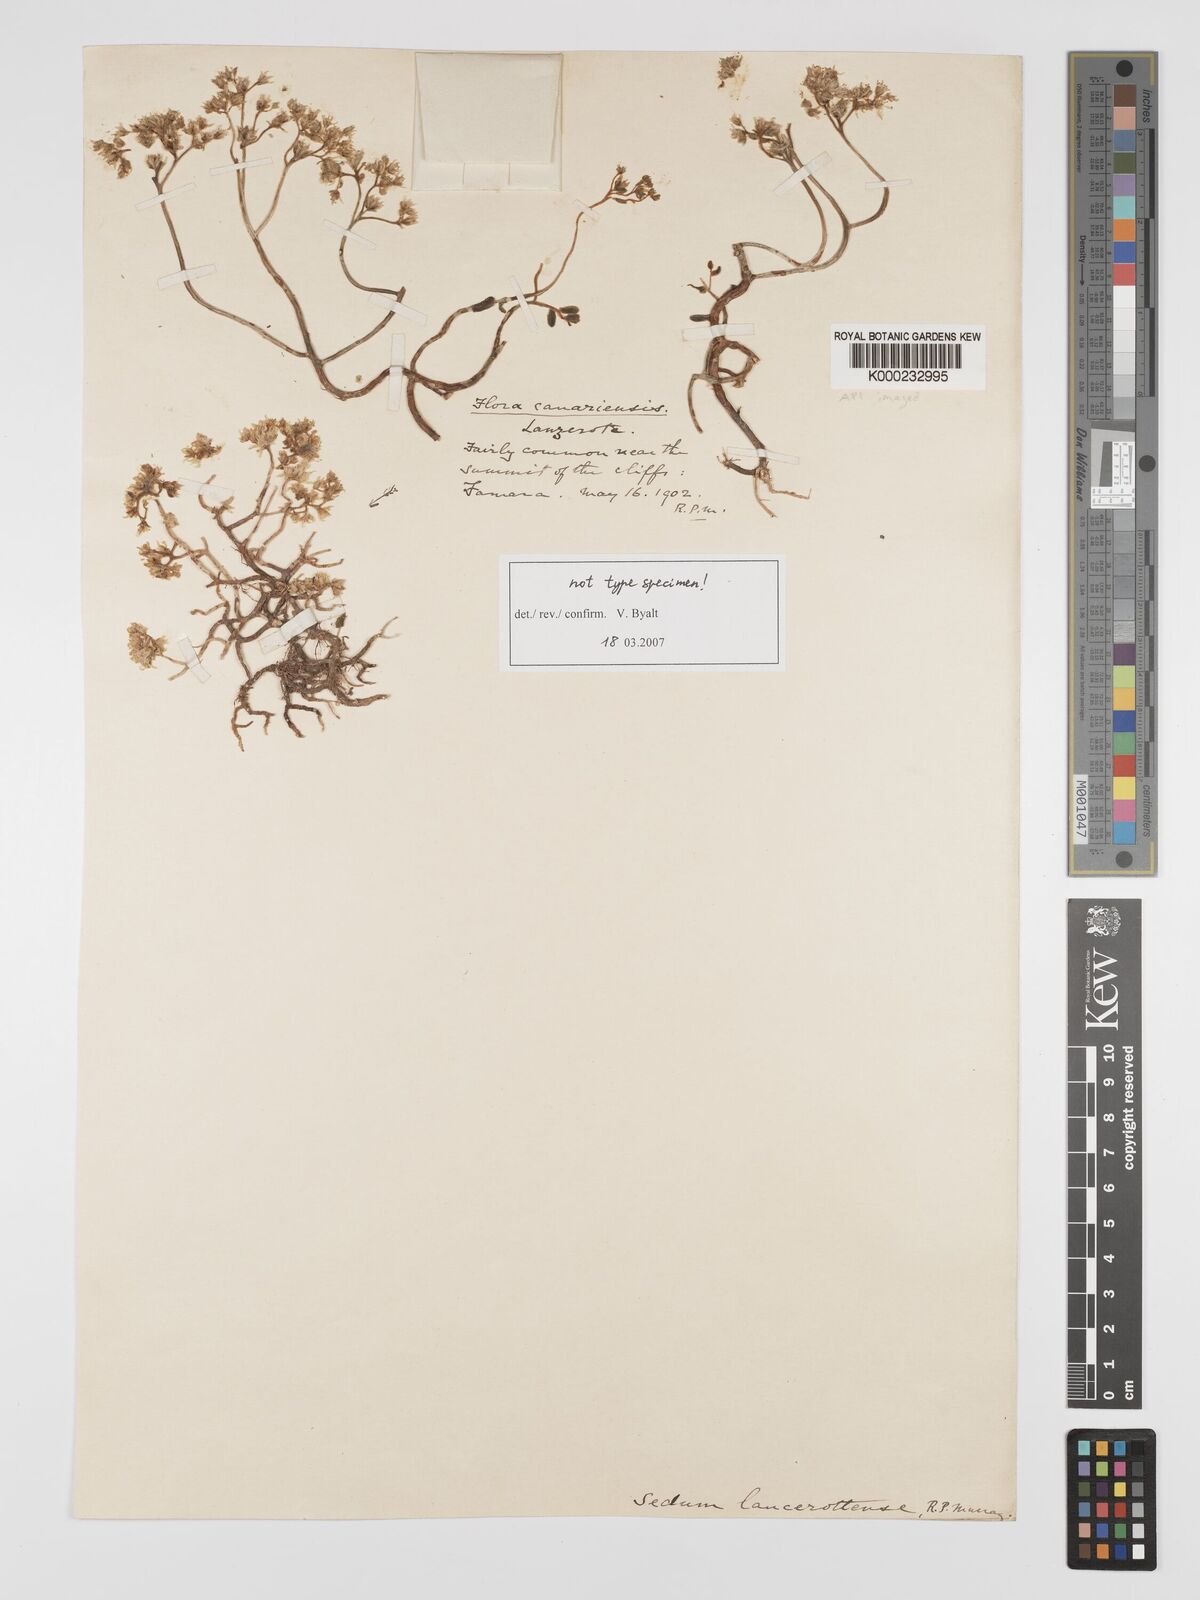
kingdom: Plantae
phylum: Tracheophyta
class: Magnoliopsida
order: Saxifragales
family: Crassulaceae
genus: Sedum
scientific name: Sedum lancerottense
